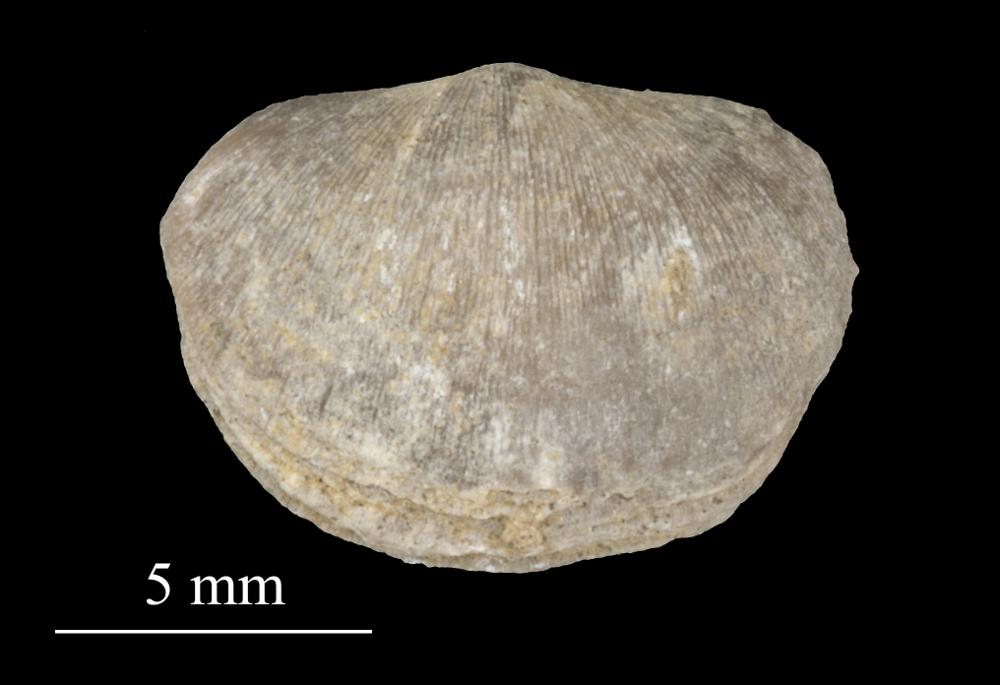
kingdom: Animalia
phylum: Brachiopoda
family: Sowerbyellidae
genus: Sowerbyella
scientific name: Sowerbyella
